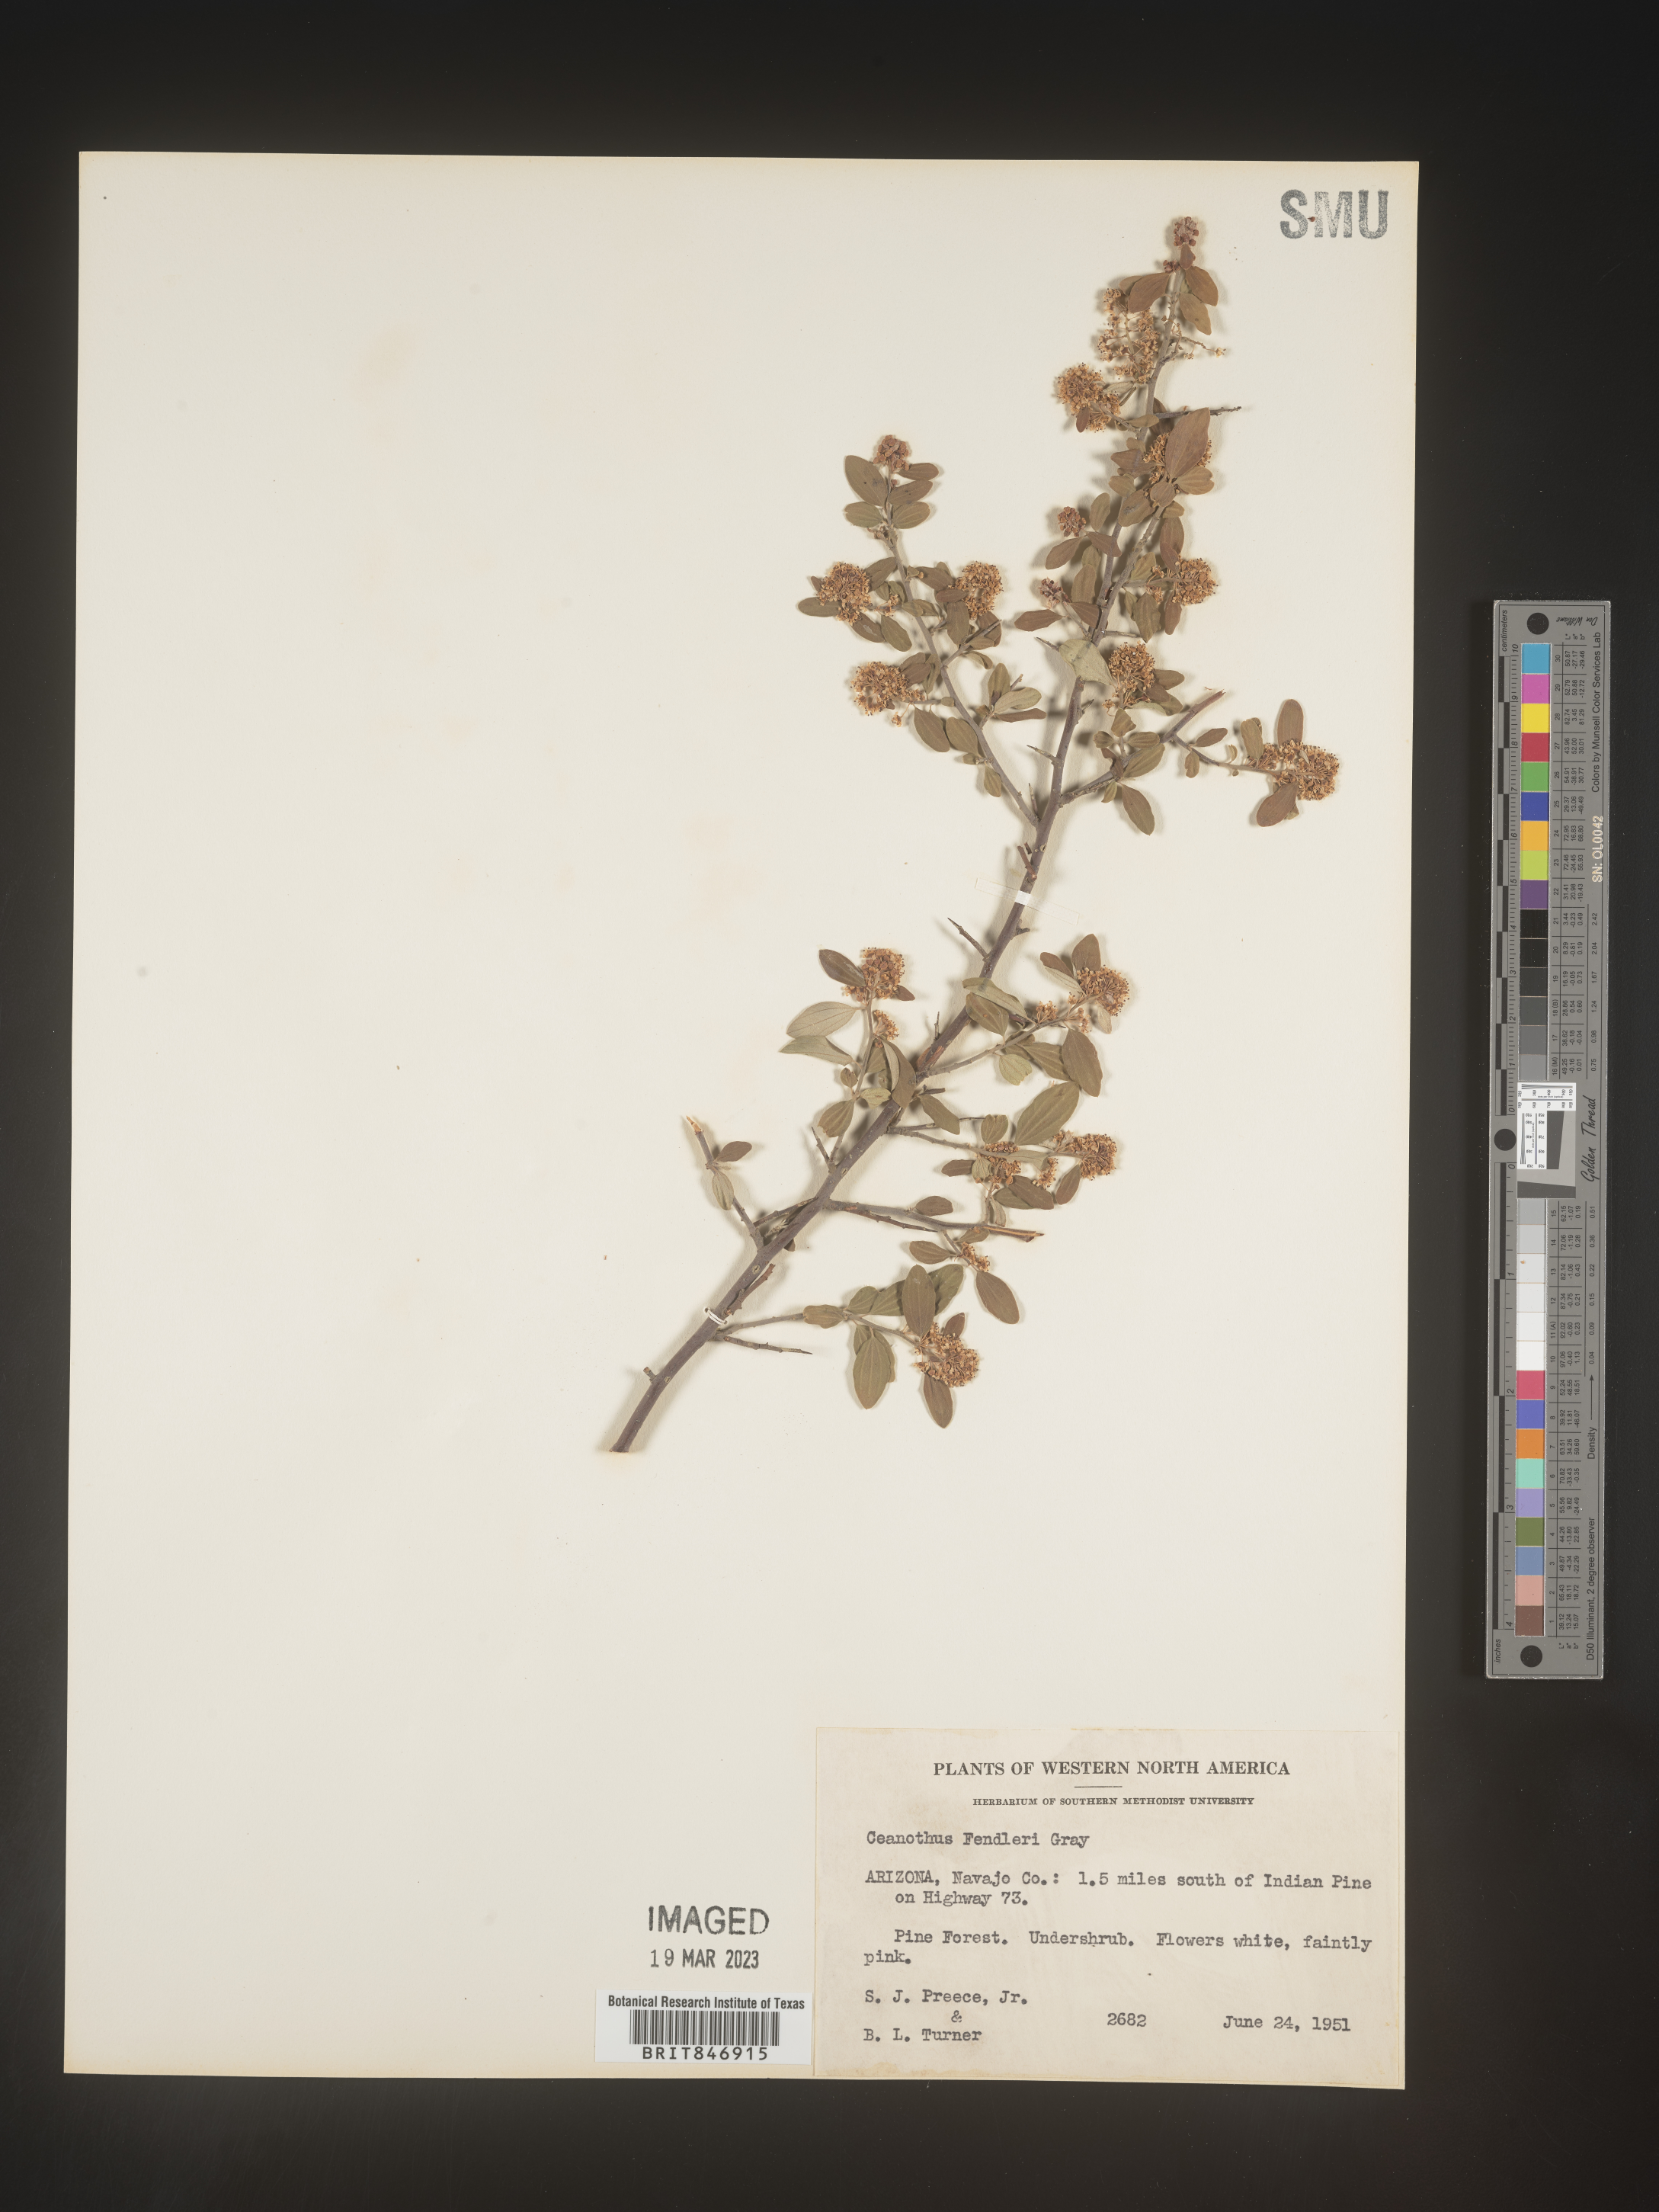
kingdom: Plantae
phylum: Tracheophyta
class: Magnoliopsida
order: Rosales
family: Rhamnaceae
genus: Ceanothus
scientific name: Ceanothus fendleri
